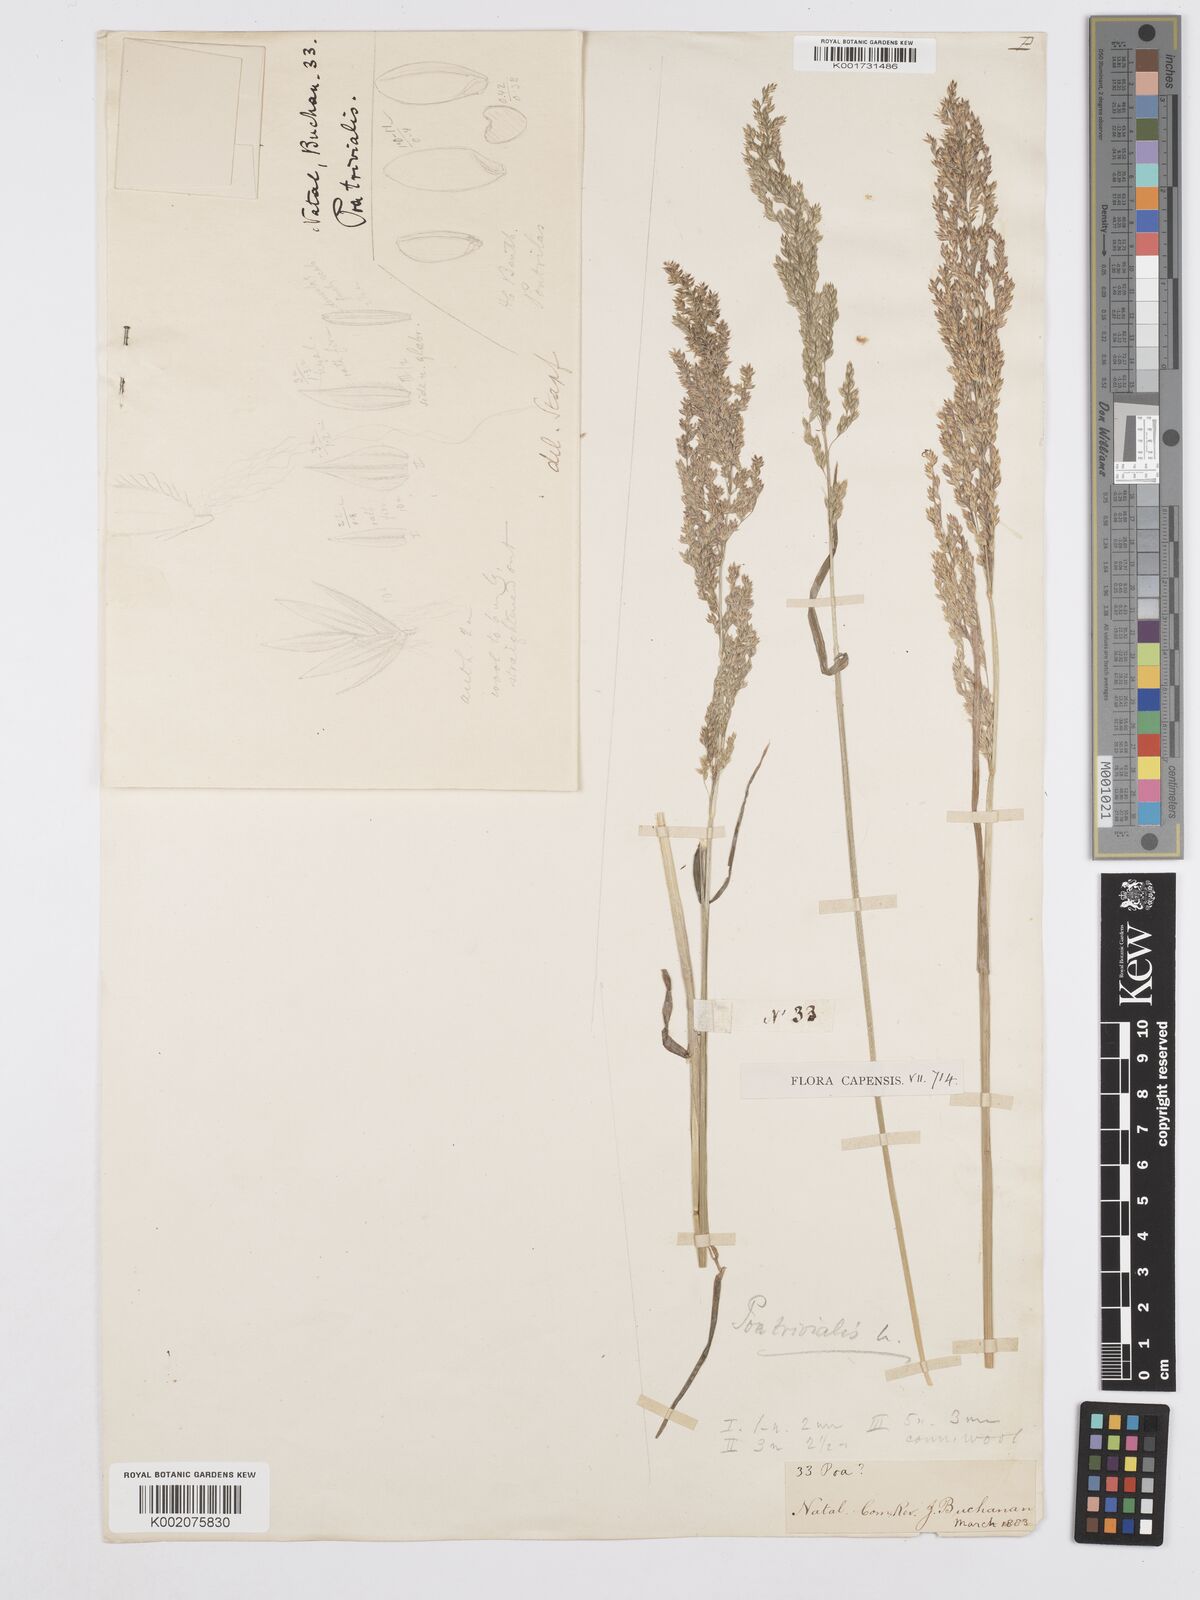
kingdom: Plantae
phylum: Tracheophyta
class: Liliopsida
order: Poales
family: Poaceae
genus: Poa
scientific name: Poa trivialis
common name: Rough bluegrass
